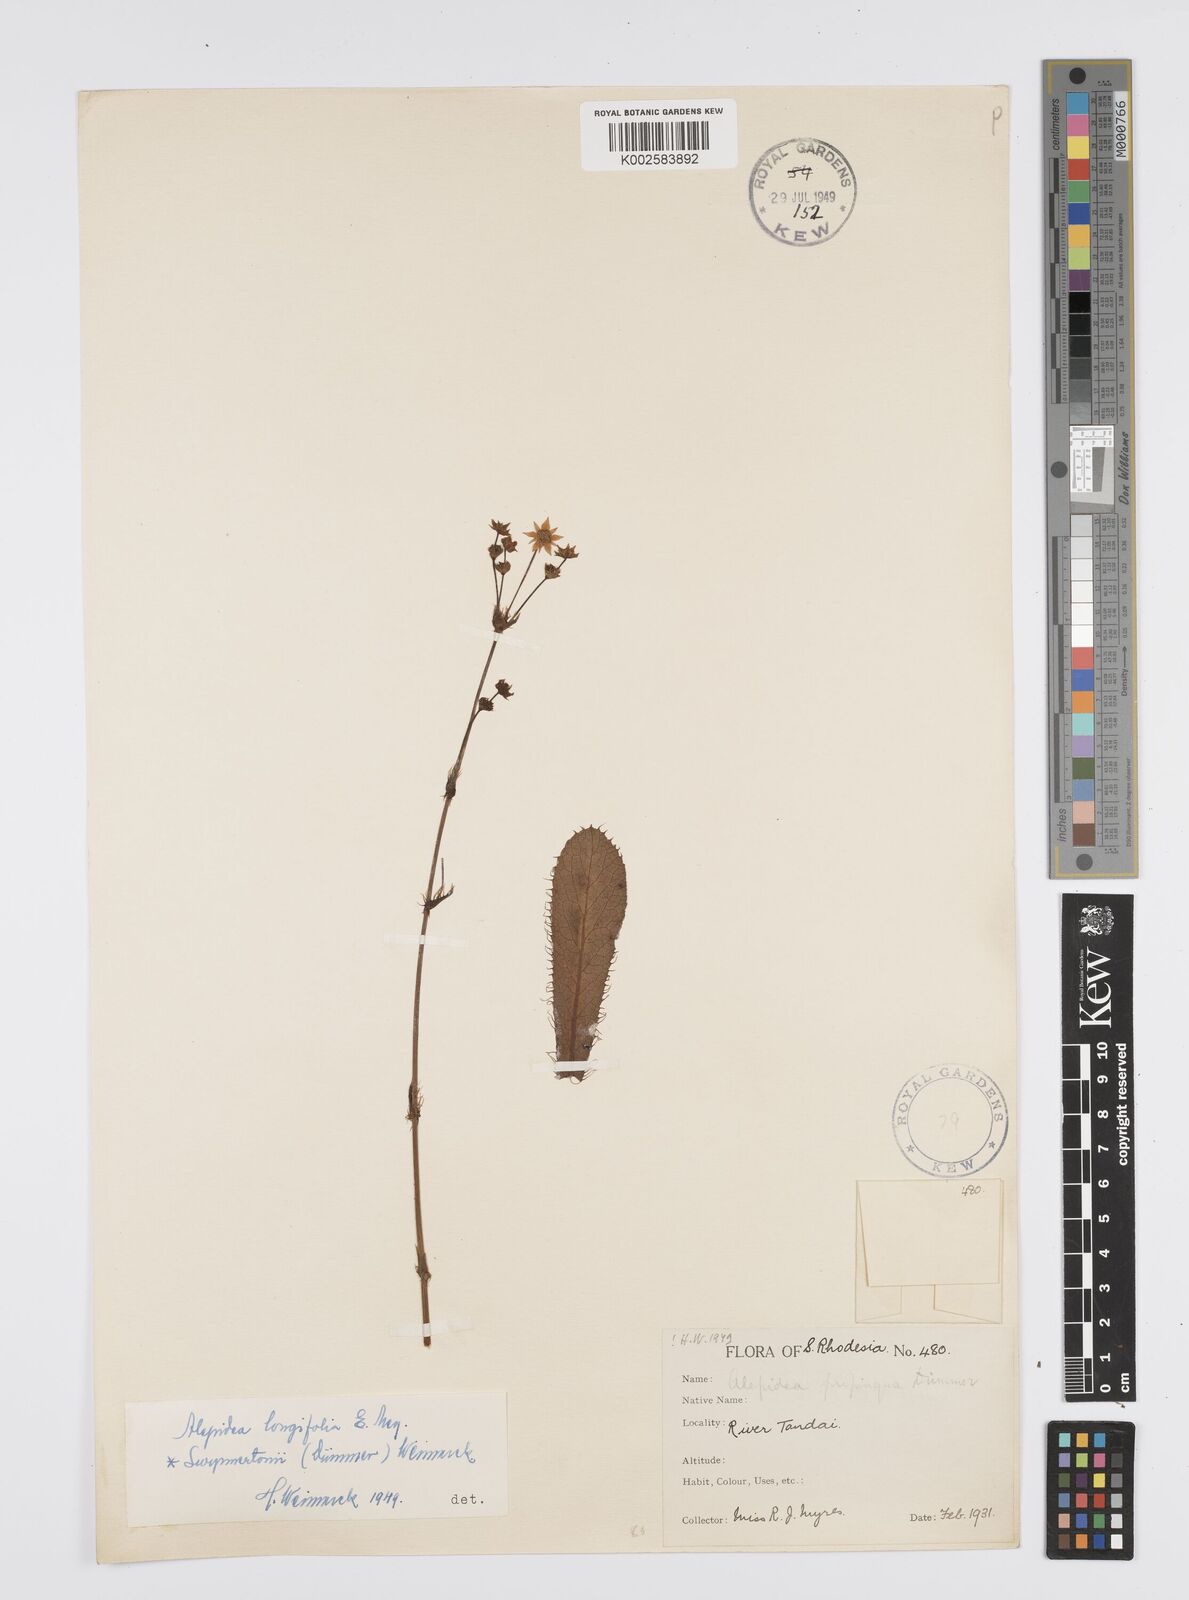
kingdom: Plantae
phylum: Tracheophyta
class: Magnoliopsida
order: Apiales
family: Apiaceae
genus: Alepidea
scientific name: Alepidea
